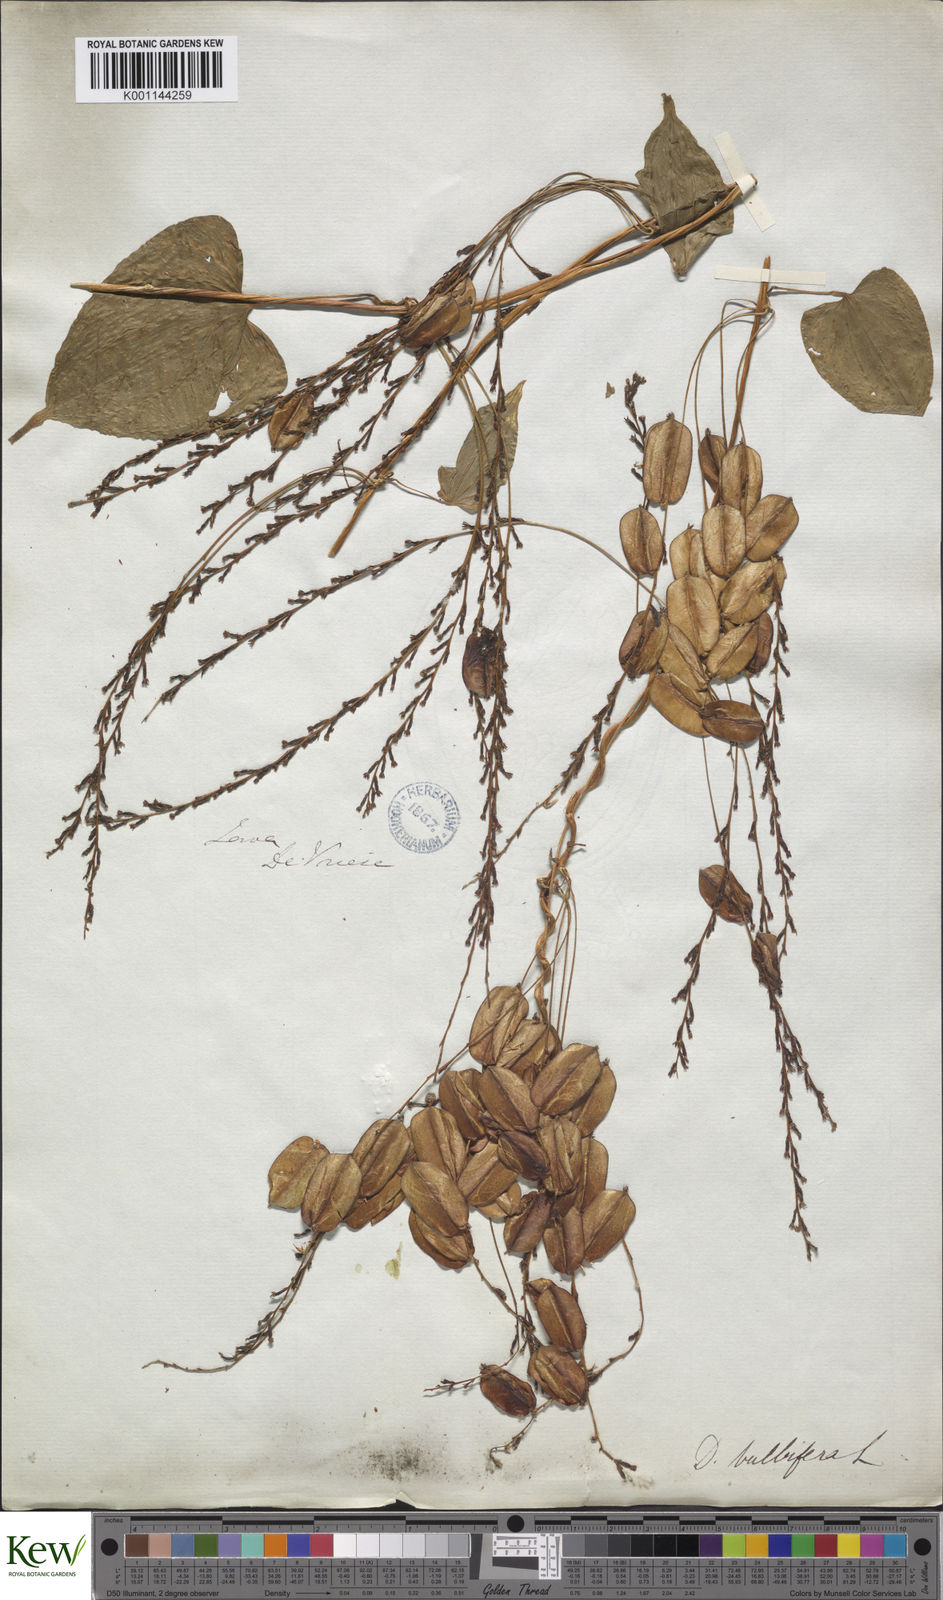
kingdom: Plantae
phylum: Tracheophyta
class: Liliopsida
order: Dioscoreales
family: Dioscoreaceae
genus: Dioscorea
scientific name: Dioscorea bulbifera
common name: Air yam
